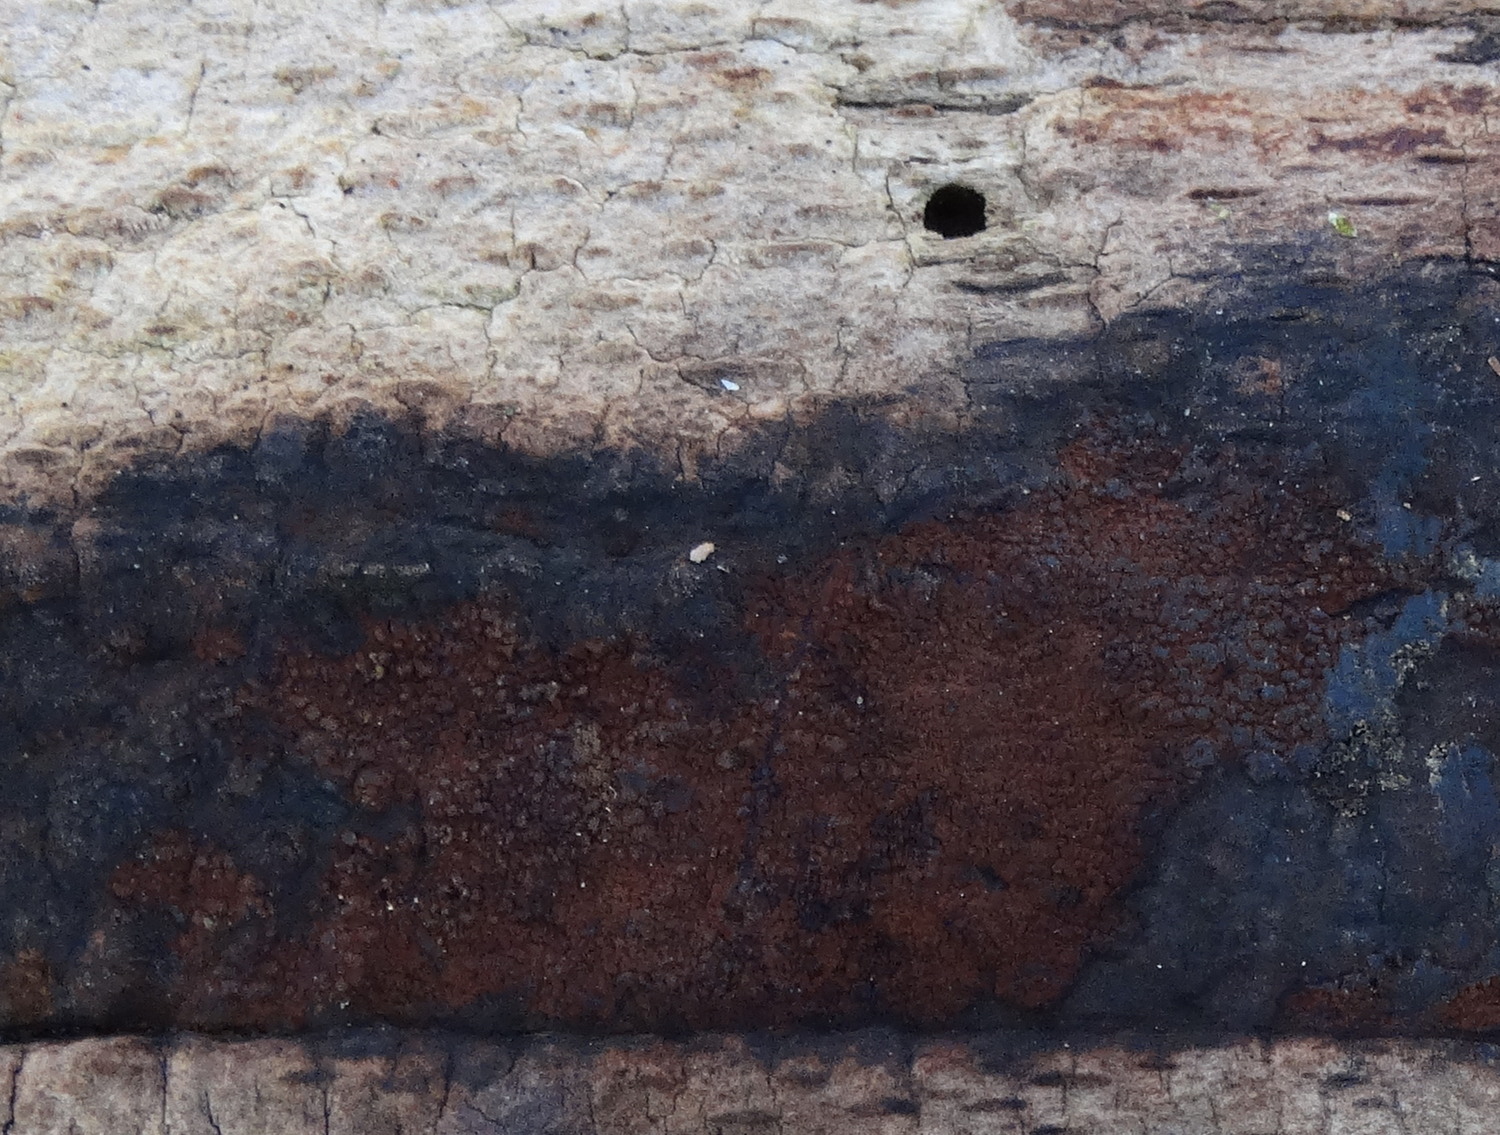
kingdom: Fungi
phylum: Ascomycota
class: Sordariomycetes
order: Xylariales
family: Hypoxylaceae
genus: Hypoxylon
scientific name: Hypoxylon
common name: kulbær
